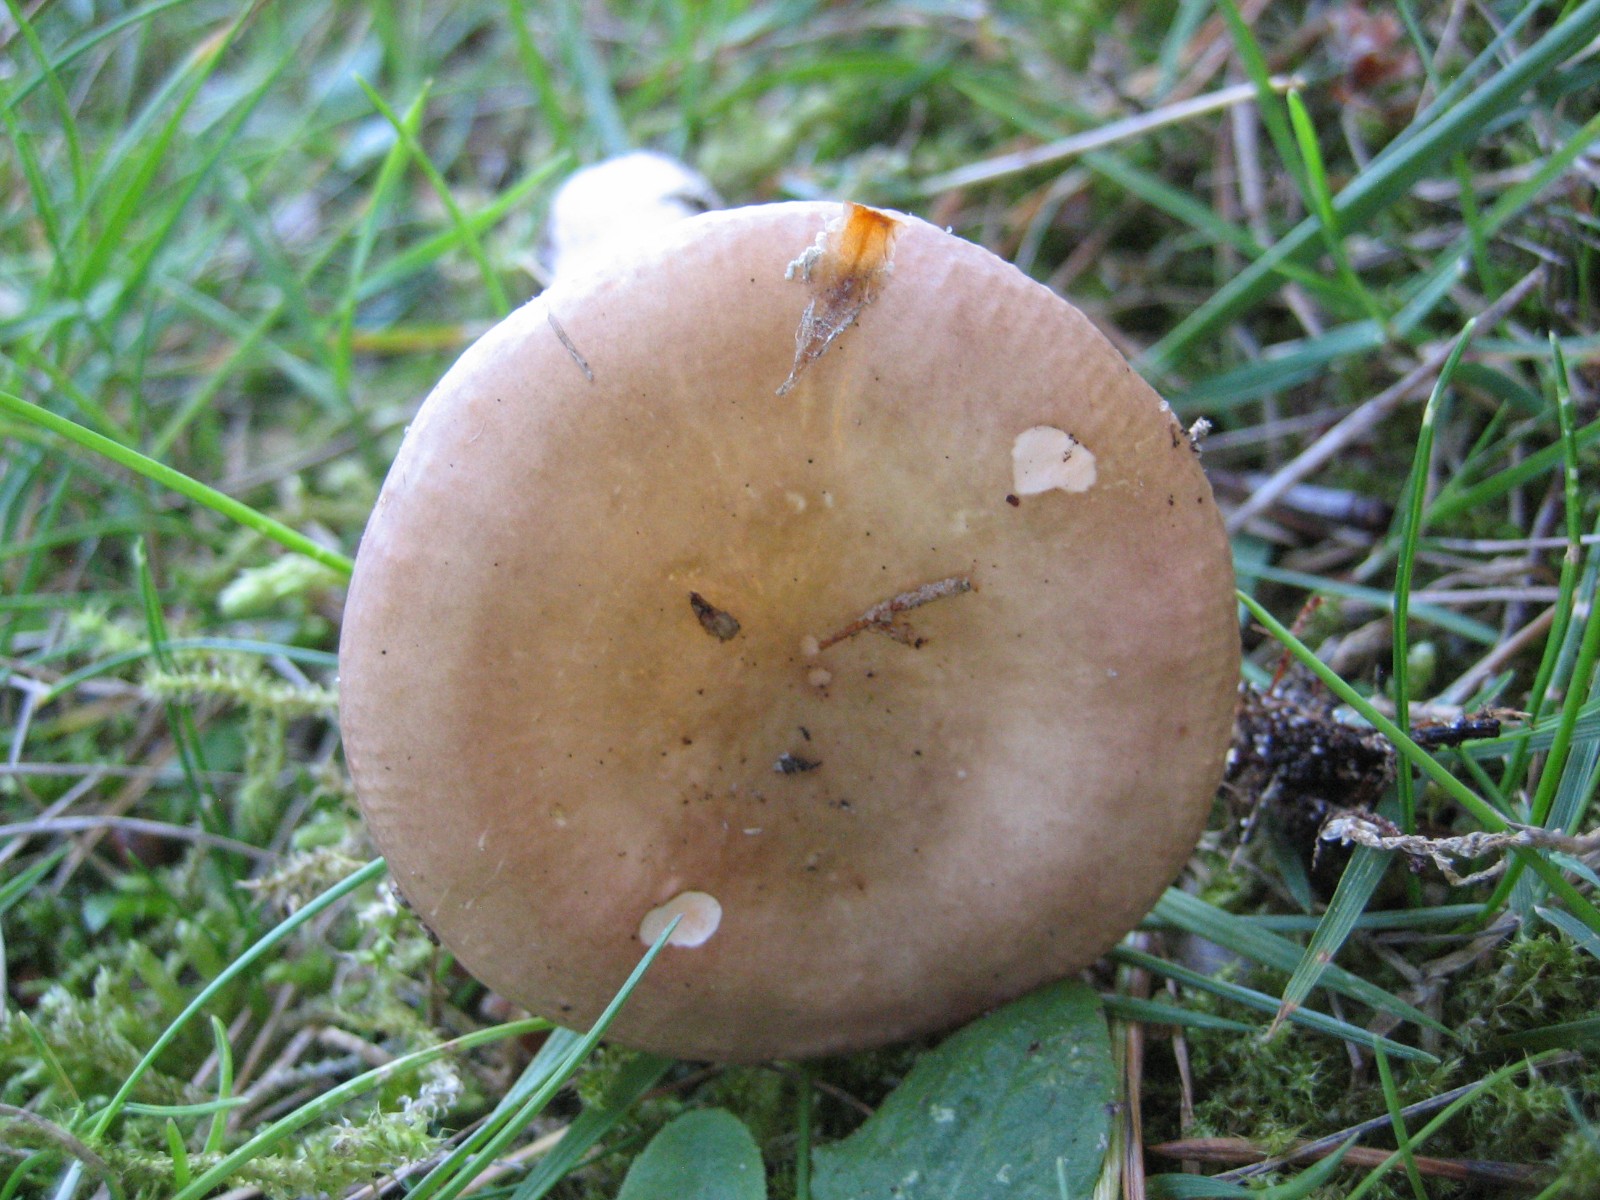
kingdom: Fungi
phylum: Basidiomycota
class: Agaricomycetes
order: Russulales
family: Russulaceae
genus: Russula
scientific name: Russula
